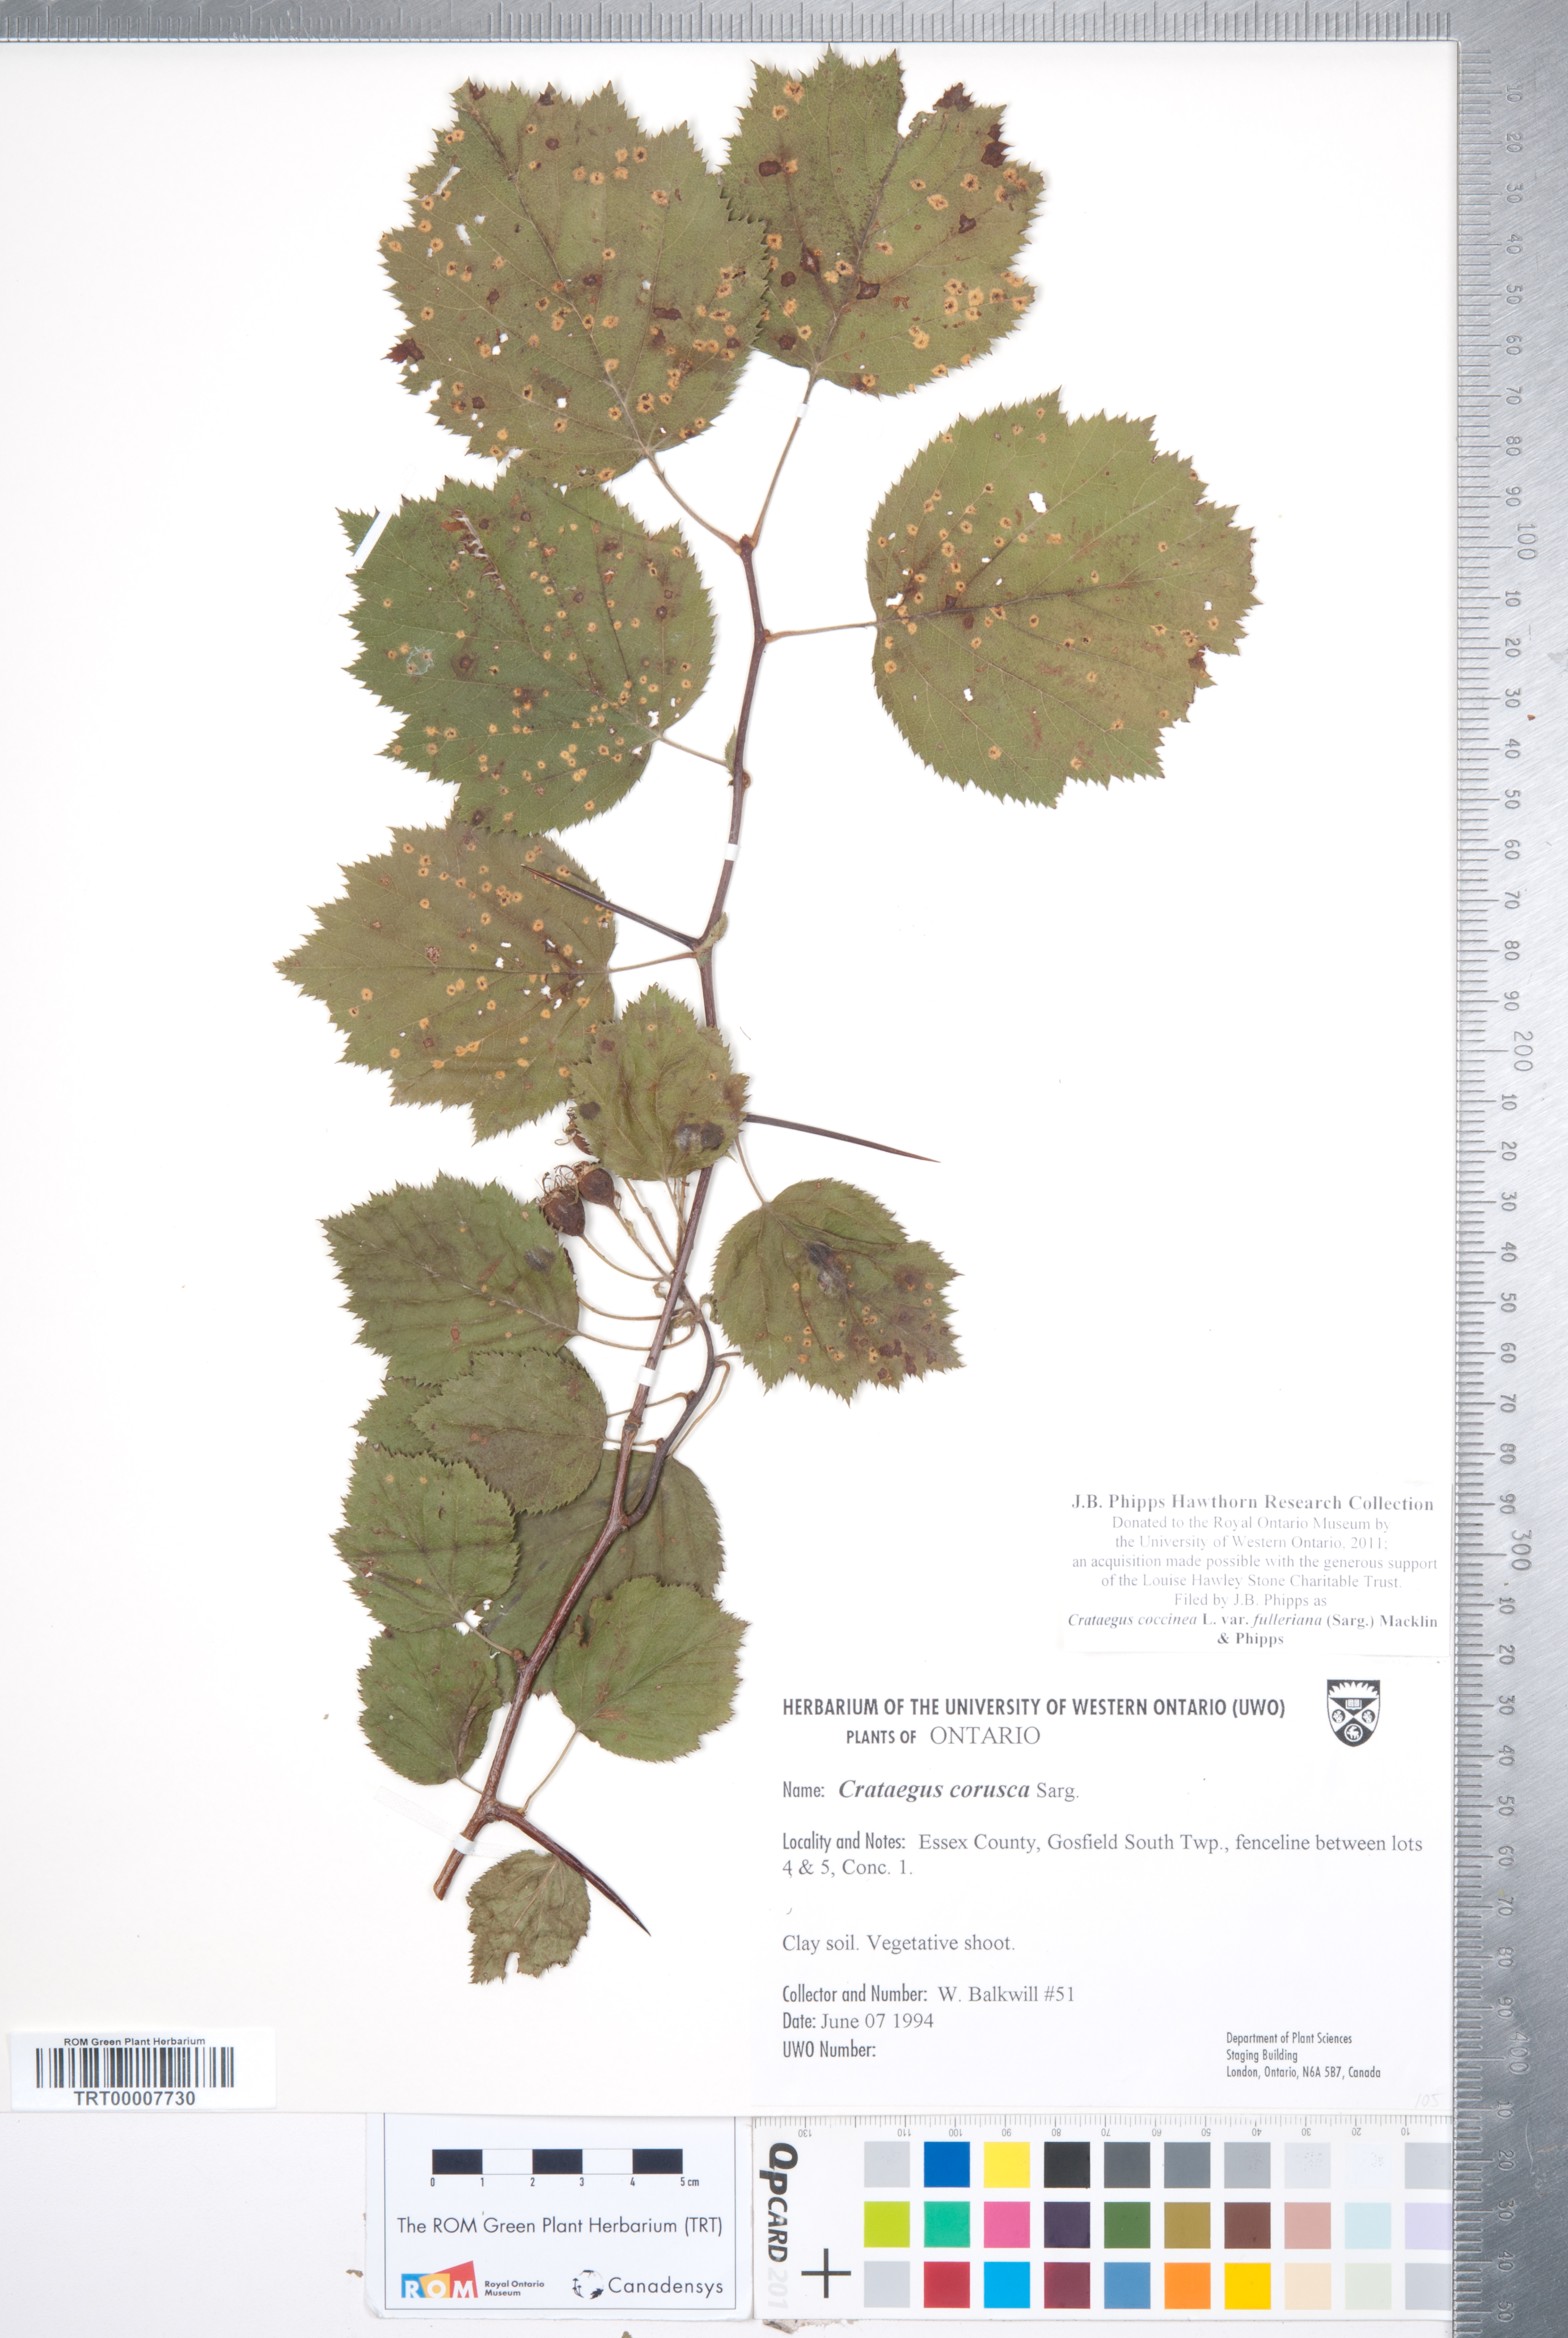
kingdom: Plantae
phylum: Tracheophyta
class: Magnoliopsida
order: Rosales
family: Rosaceae
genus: Crataegus
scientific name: Crataegus coccinea
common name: Scarlet hawthorn
